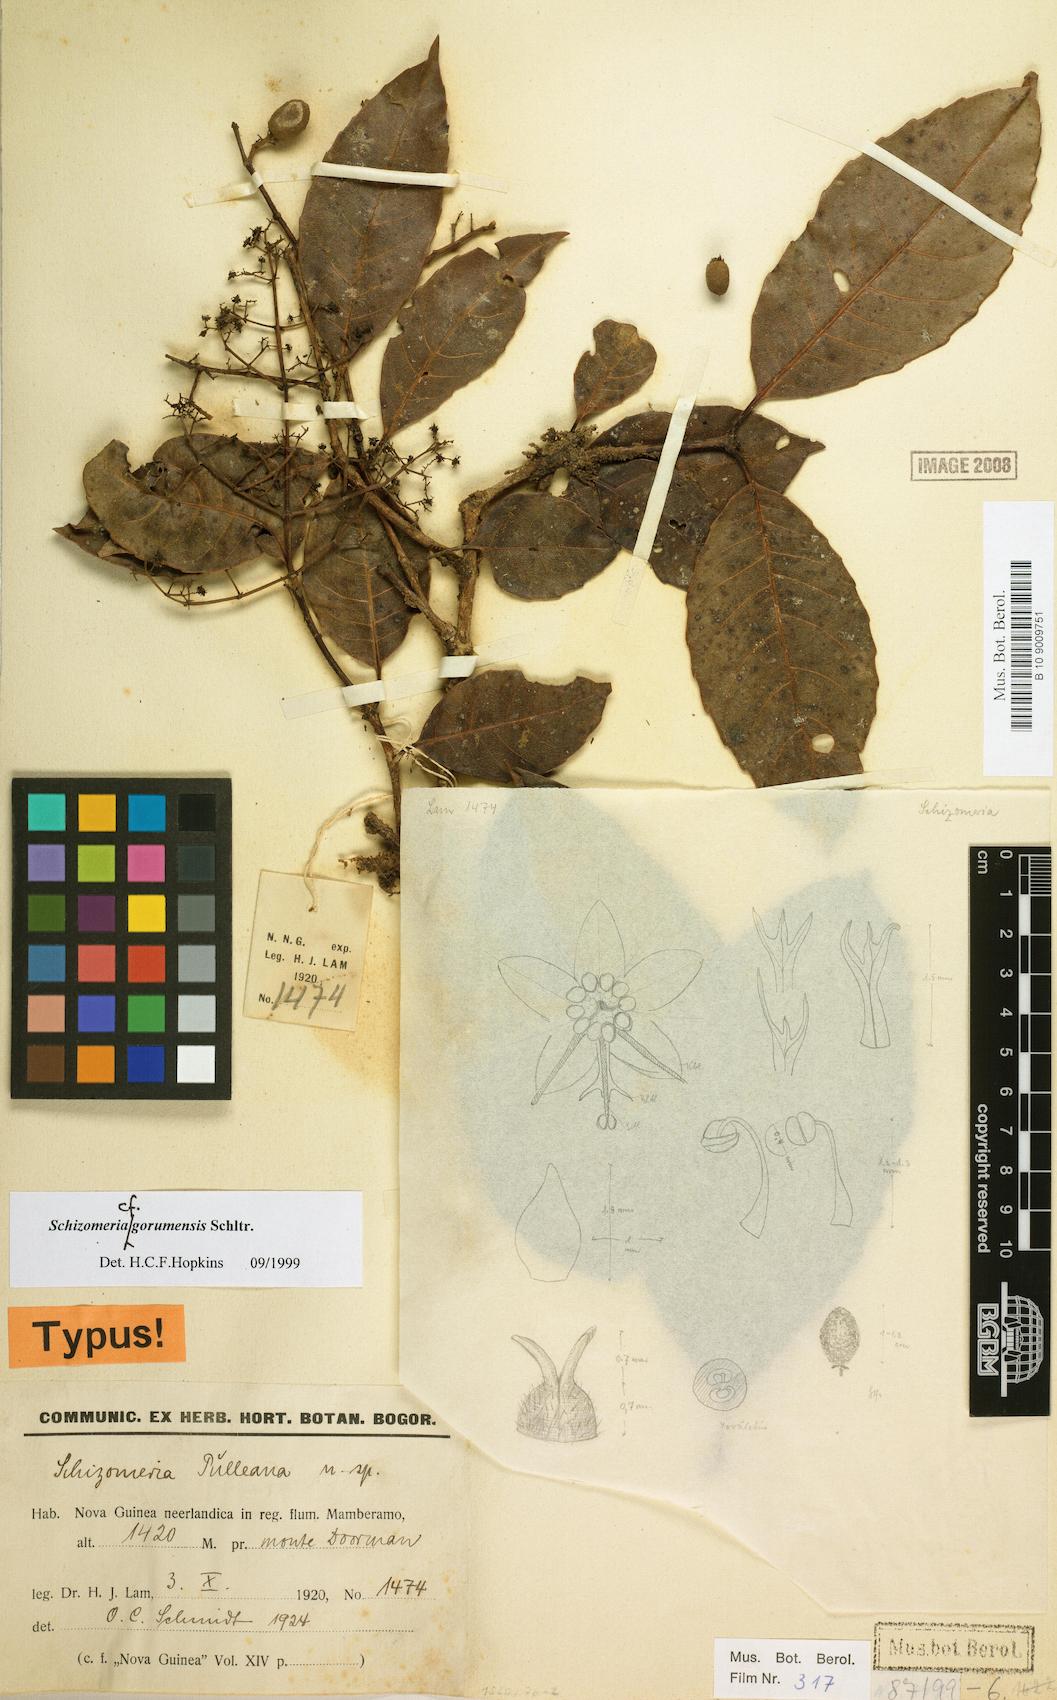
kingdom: Plantae
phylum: Tracheophyta
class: Magnoliopsida
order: Oxalidales
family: Cunoniaceae
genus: Schizomeria
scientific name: Schizomeria gorumensis
